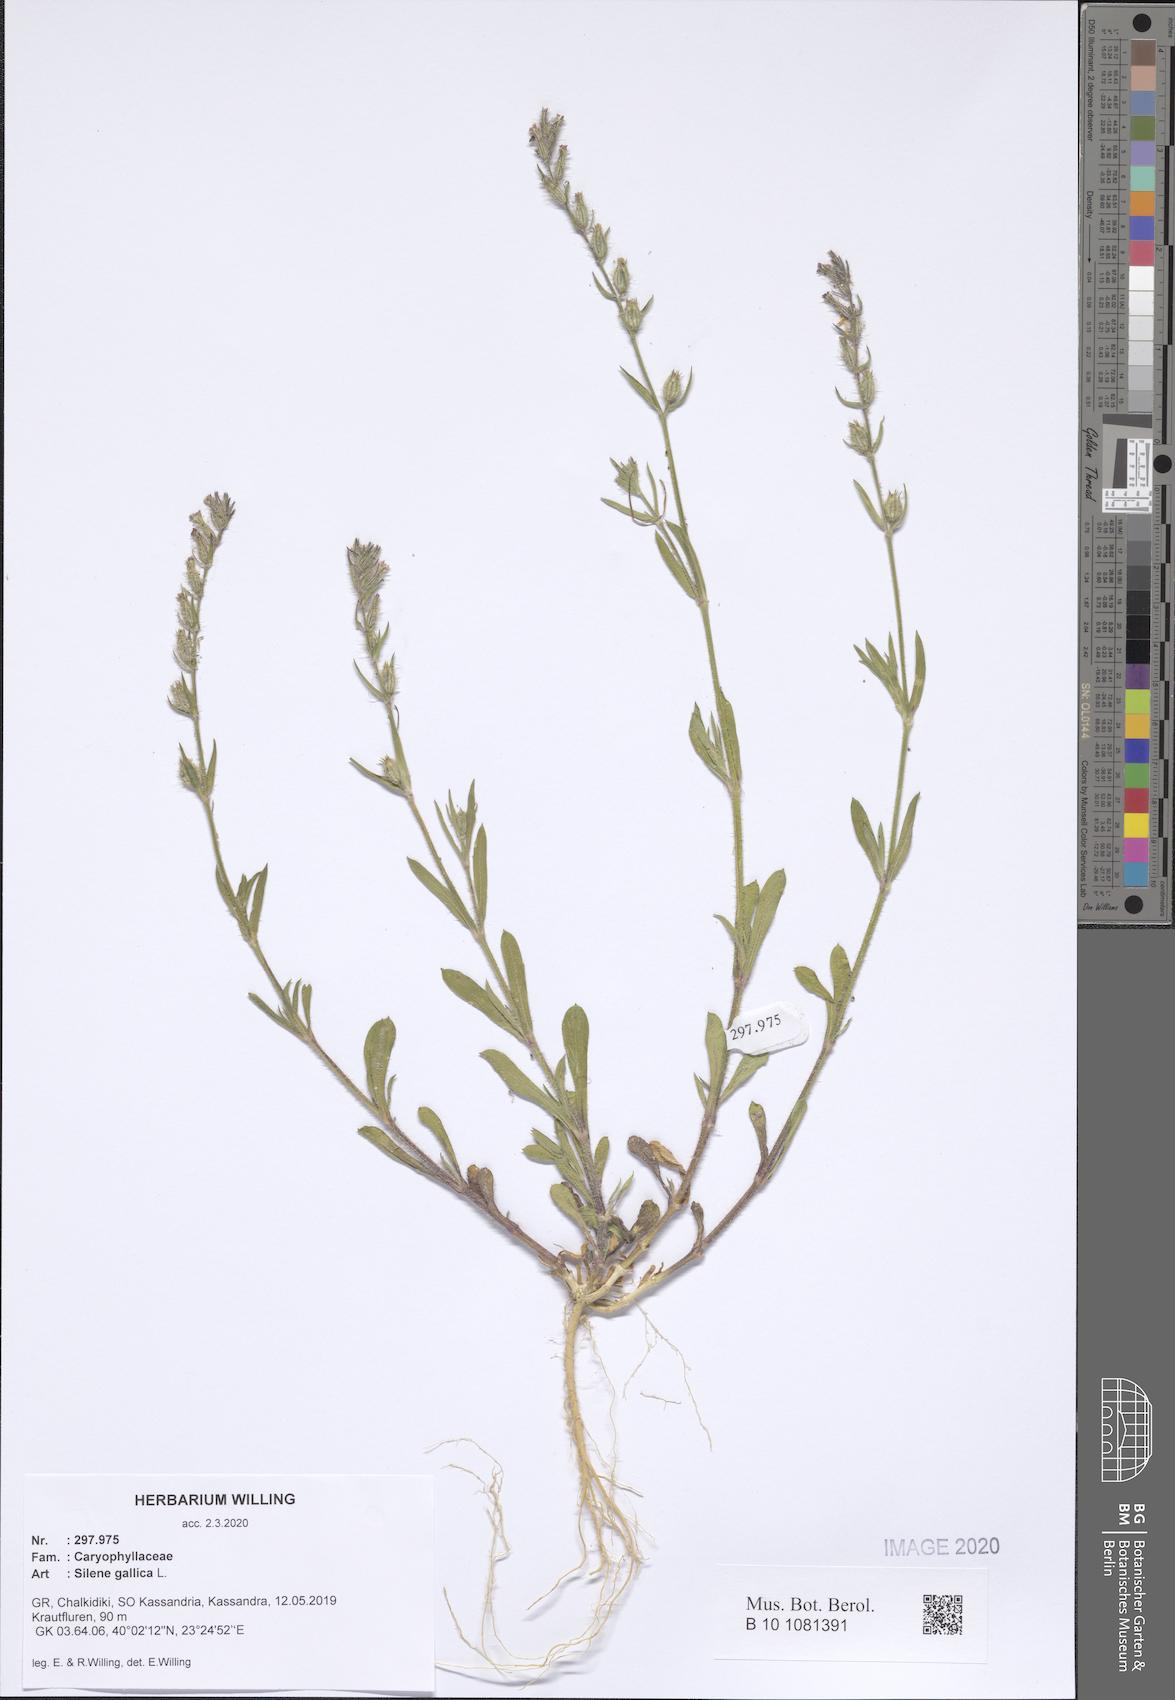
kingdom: Plantae
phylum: Tracheophyta
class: Magnoliopsida
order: Caryophyllales
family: Caryophyllaceae
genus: Silene
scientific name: Silene gallica
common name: Small-flowered catchfly
